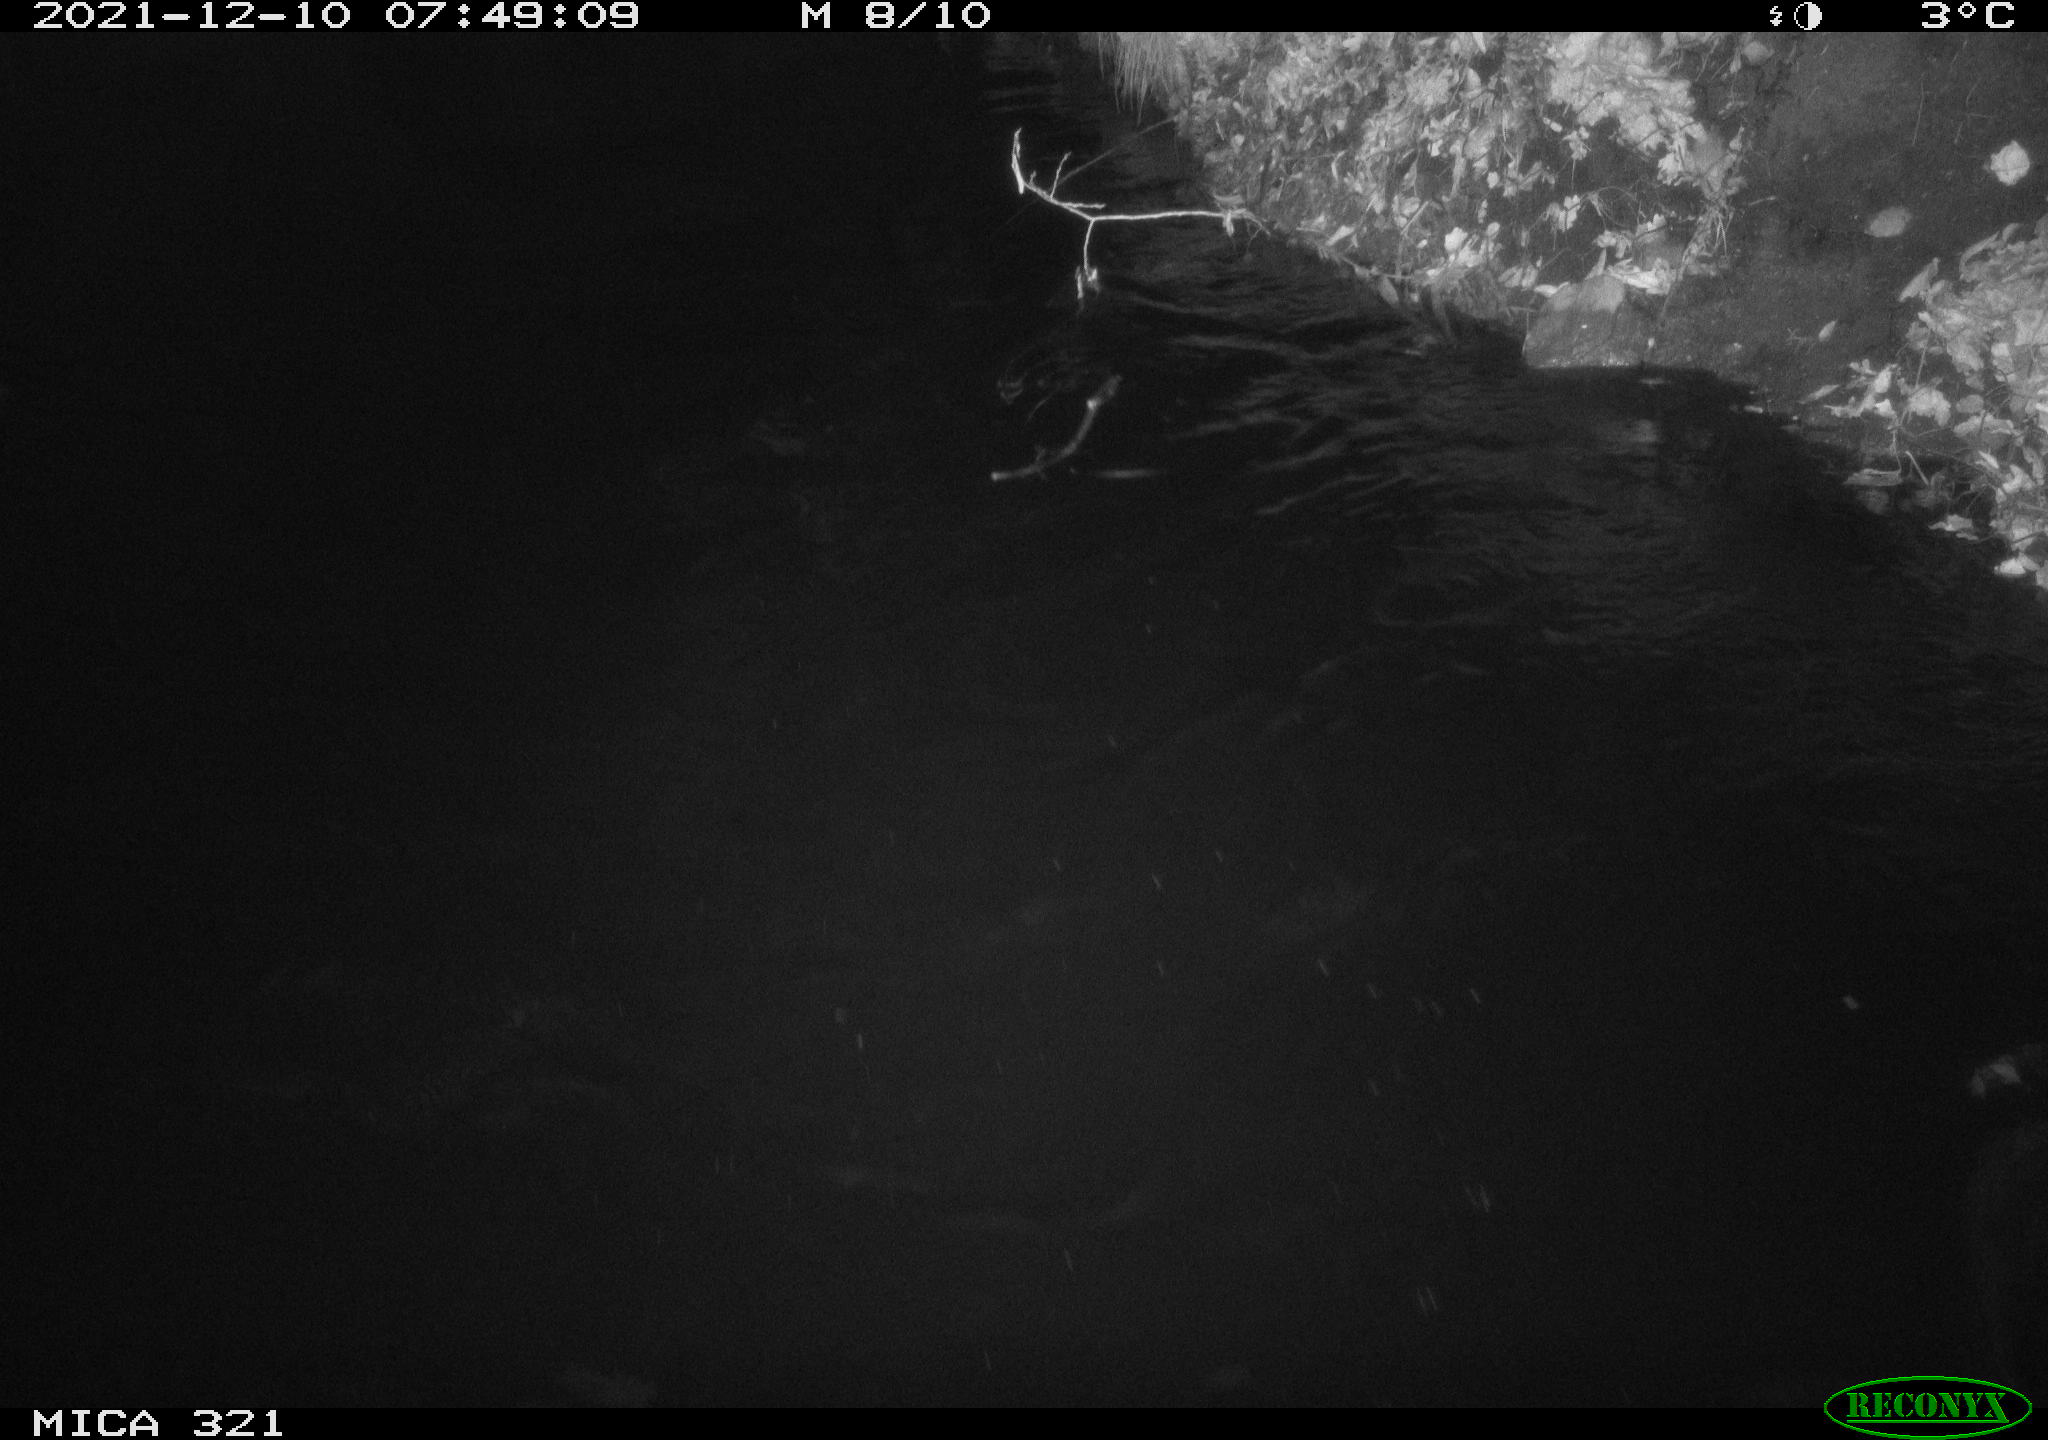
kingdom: Animalia
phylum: Chordata
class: Aves
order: Anseriformes
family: Anatidae
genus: Anas
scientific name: Anas
